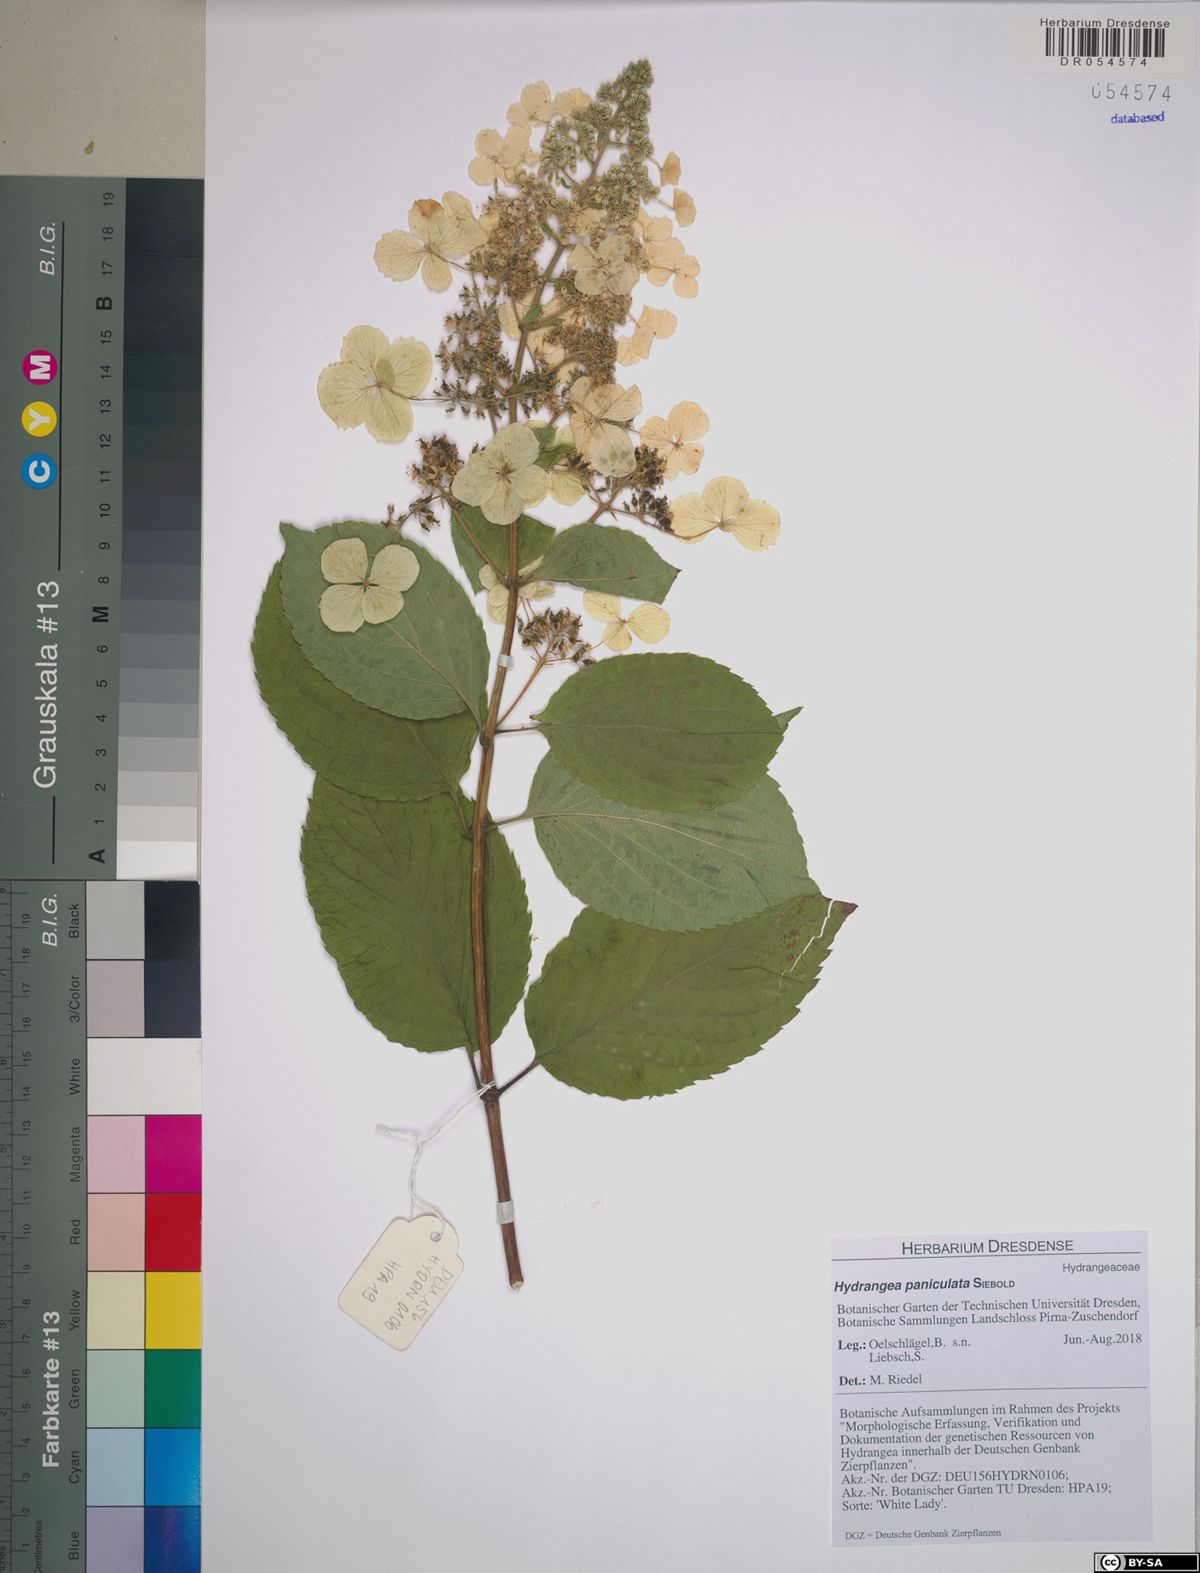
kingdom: Plantae
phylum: Tracheophyta
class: Magnoliopsida
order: Cornales
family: Hydrangeaceae
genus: Hydrangea
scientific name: Hydrangea paniculata
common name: Panicled hydrangea
